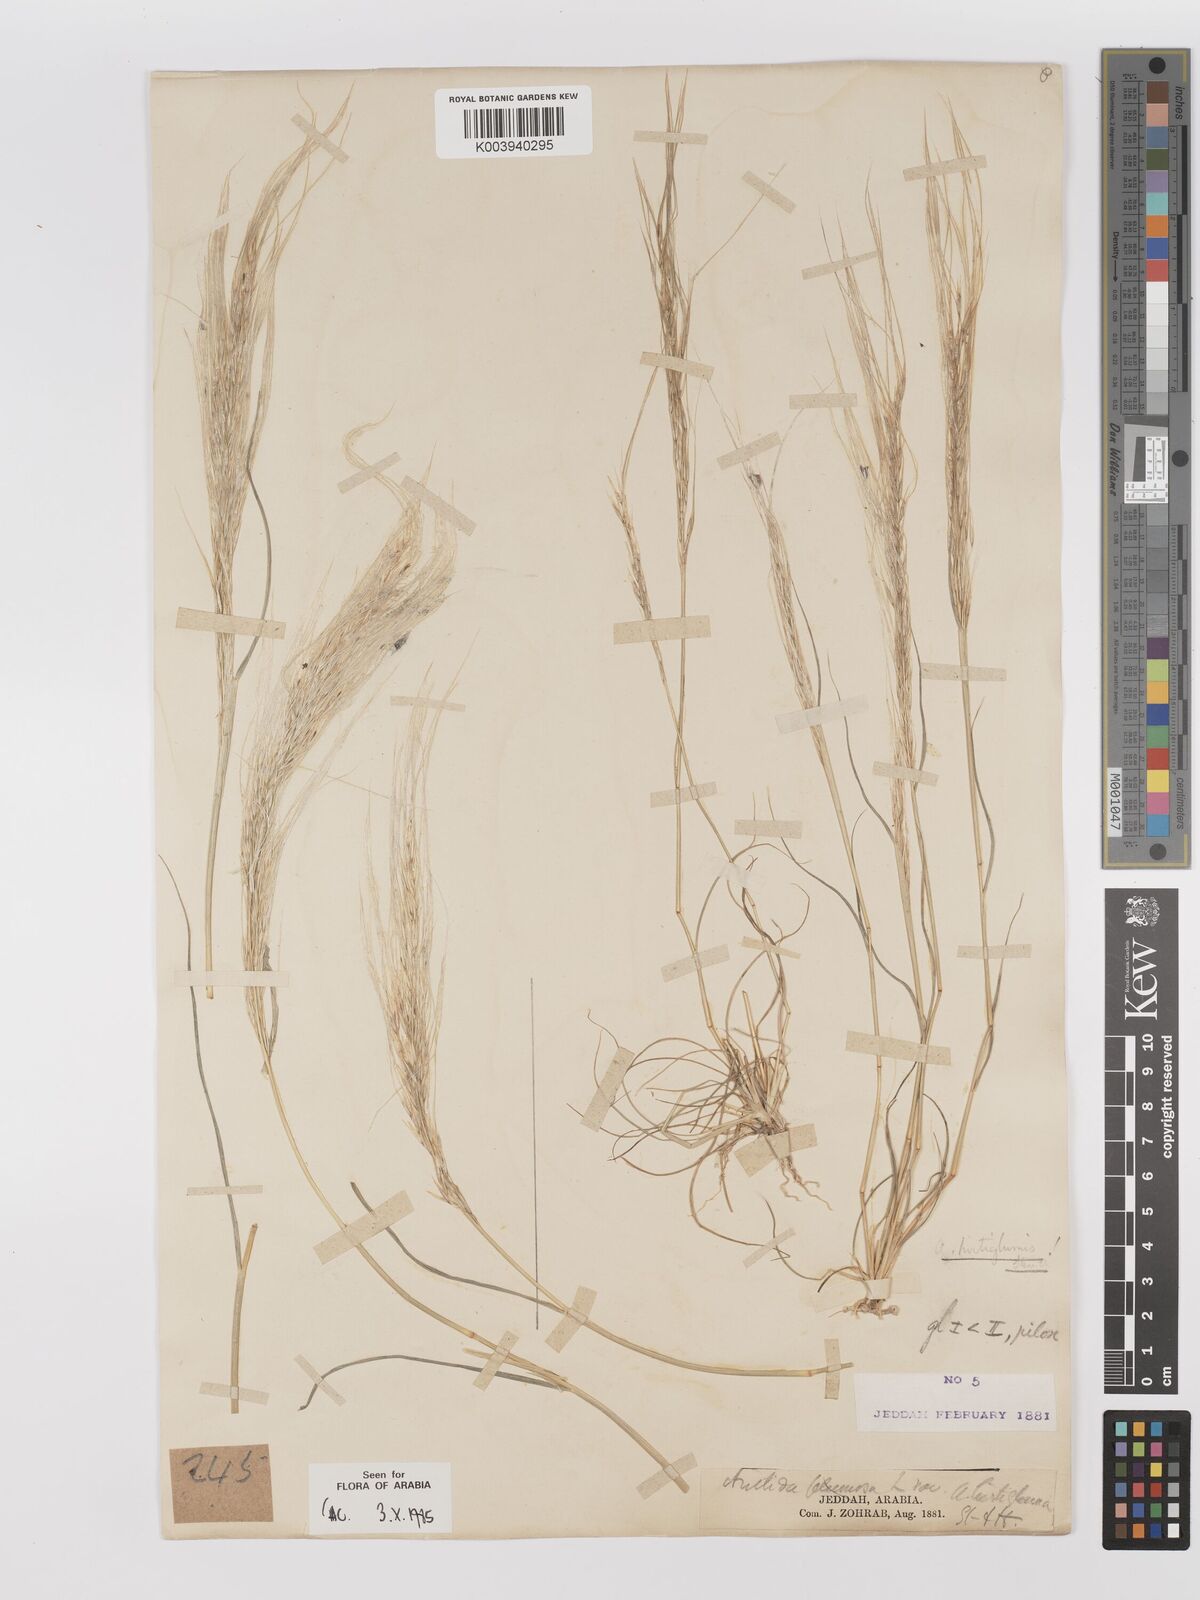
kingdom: Plantae
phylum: Tracheophyta
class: Liliopsida
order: Poales
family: Poaceae
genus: Stipagrostis
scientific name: Stipagrostis hirtigluma
